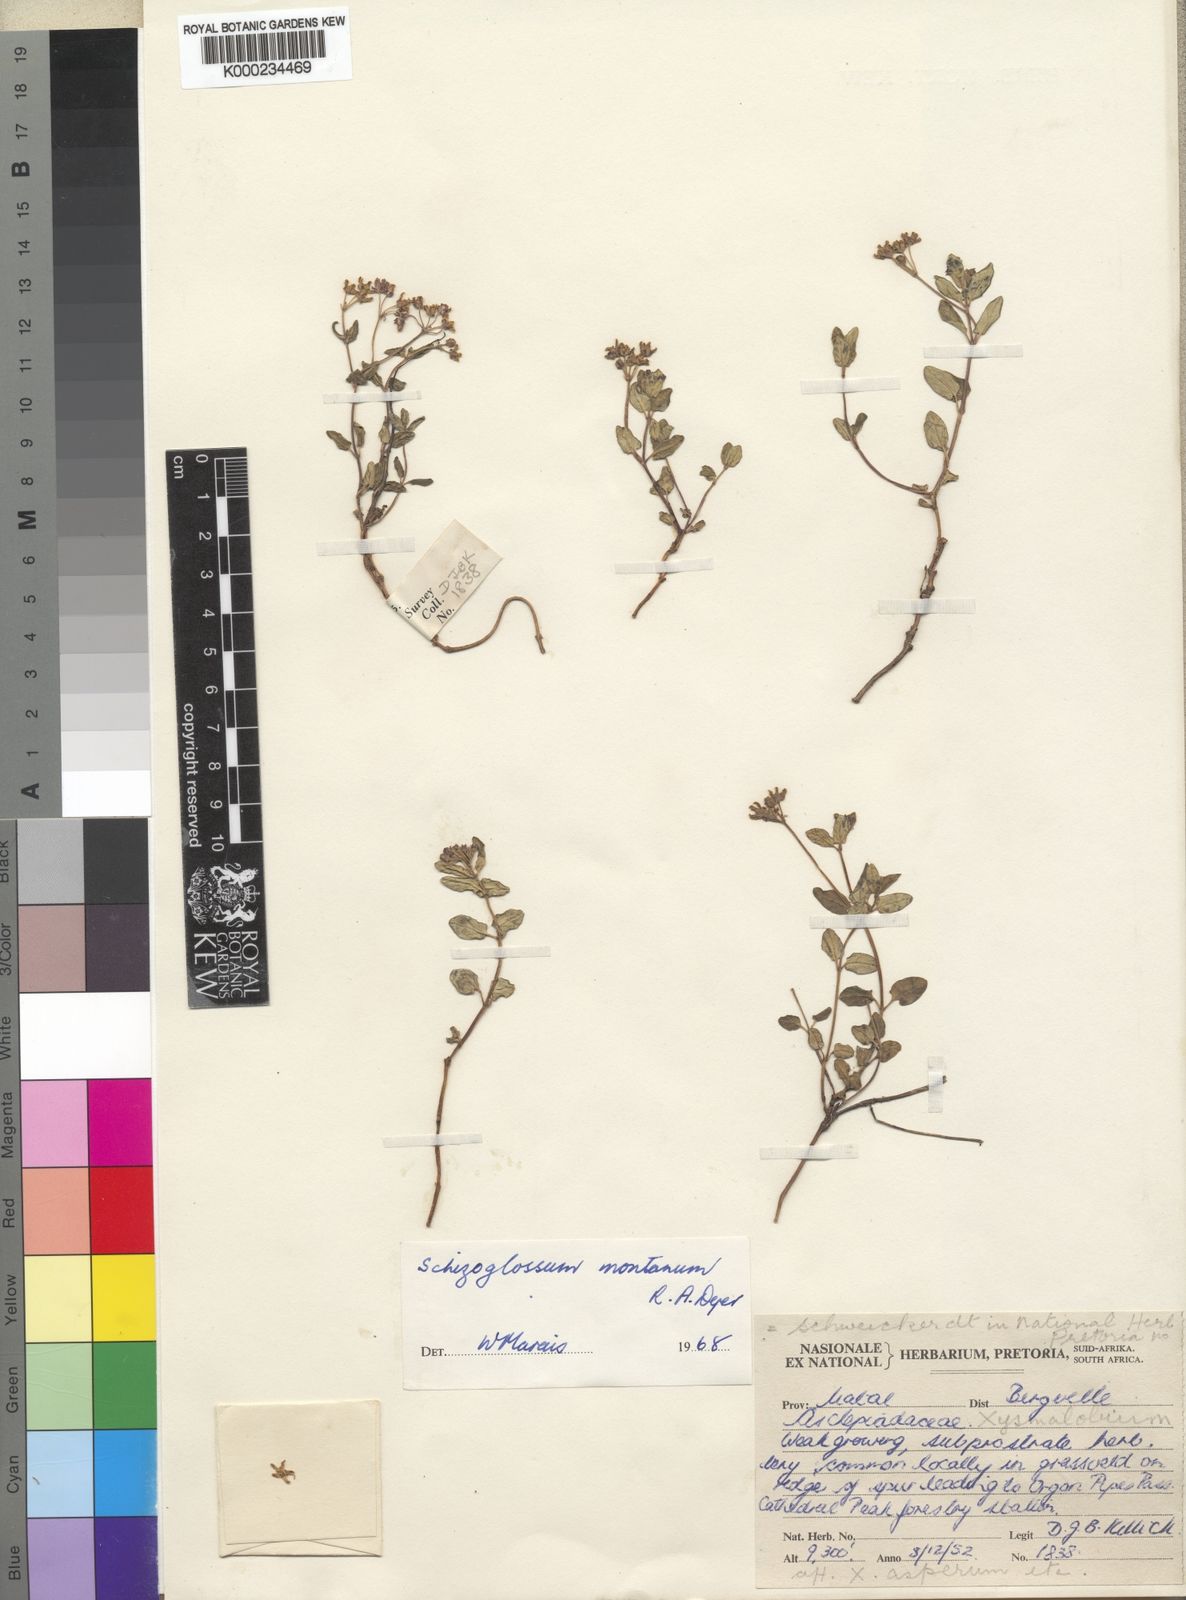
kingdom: Plantae
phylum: Tracheophyta
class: Magnoliopsida
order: Gentianales
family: Apocynaceae
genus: Schizoglossum
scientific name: Schizoglossum montanum
